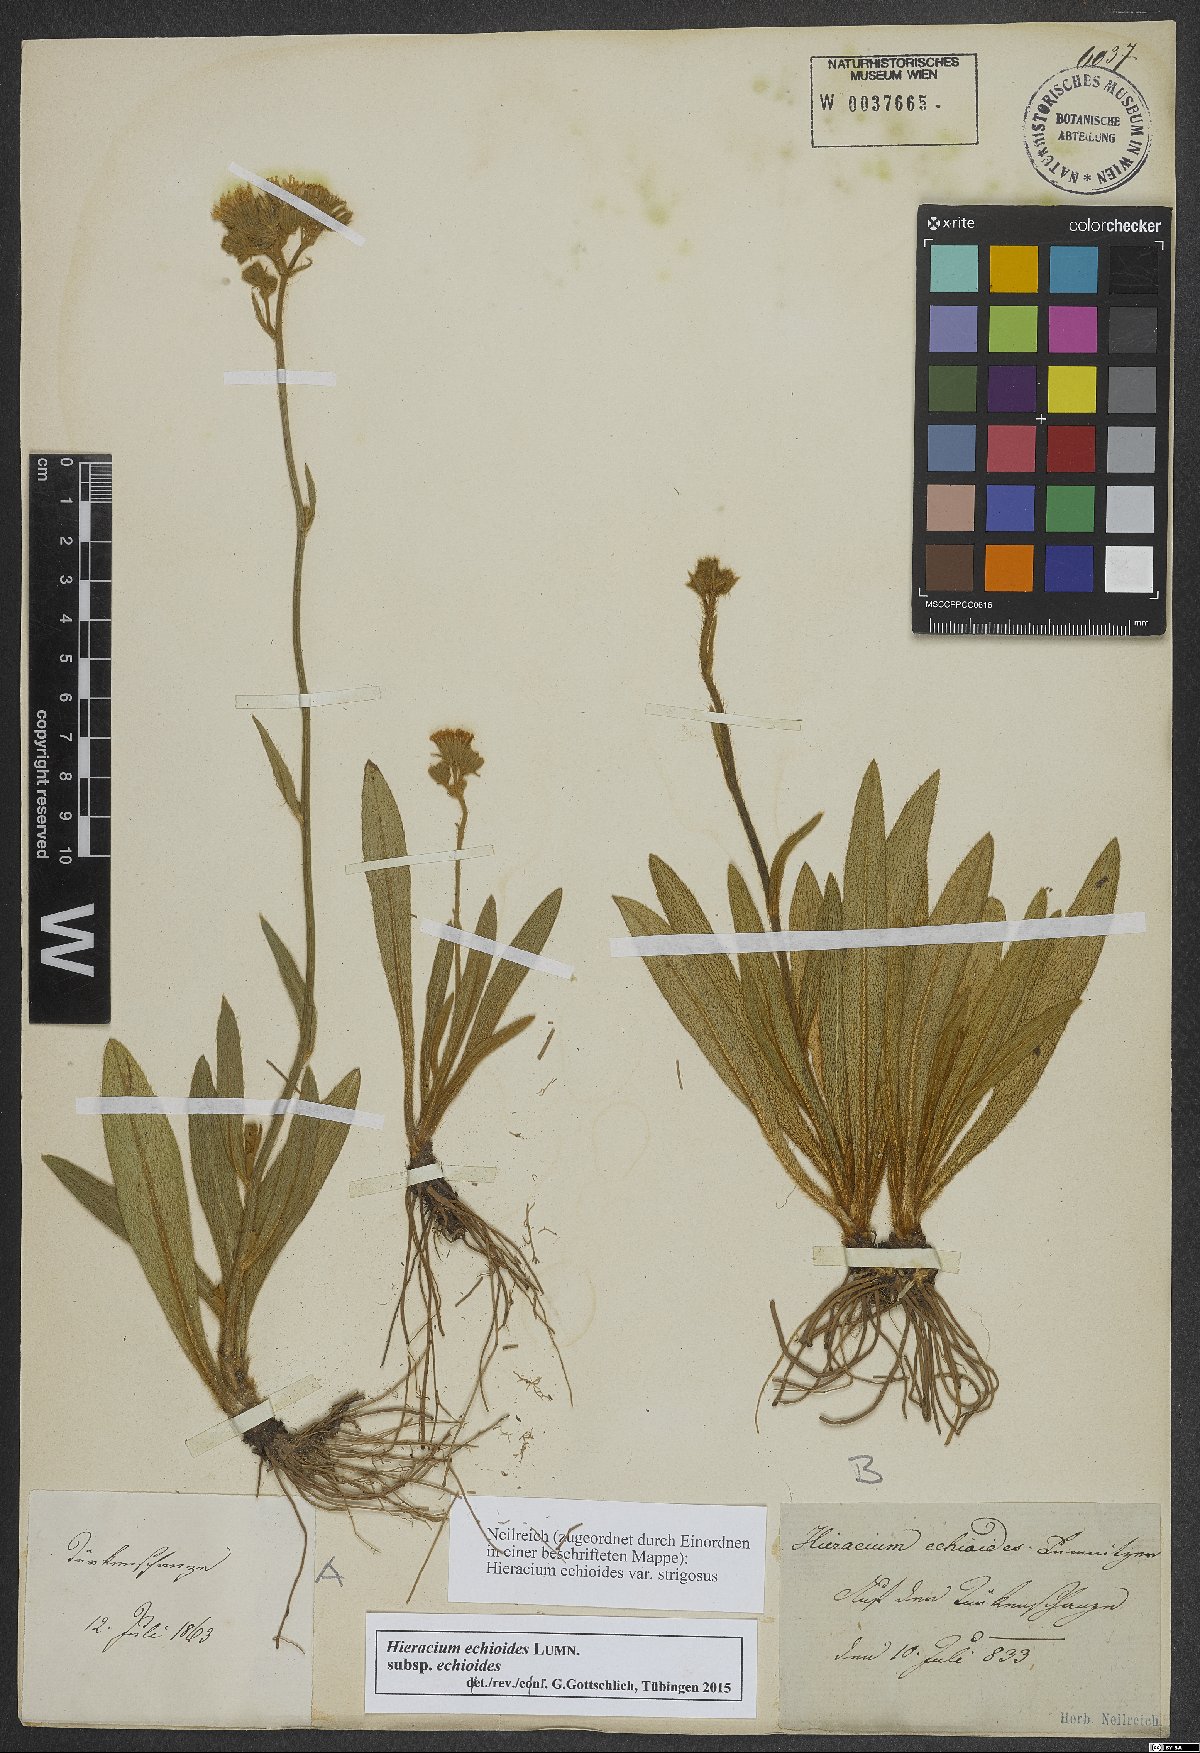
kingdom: Plantae
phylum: Tracheophyta
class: Magnoliopsida
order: Asterales
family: Asteraceae
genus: Pilosella
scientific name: Pilosella echioides
